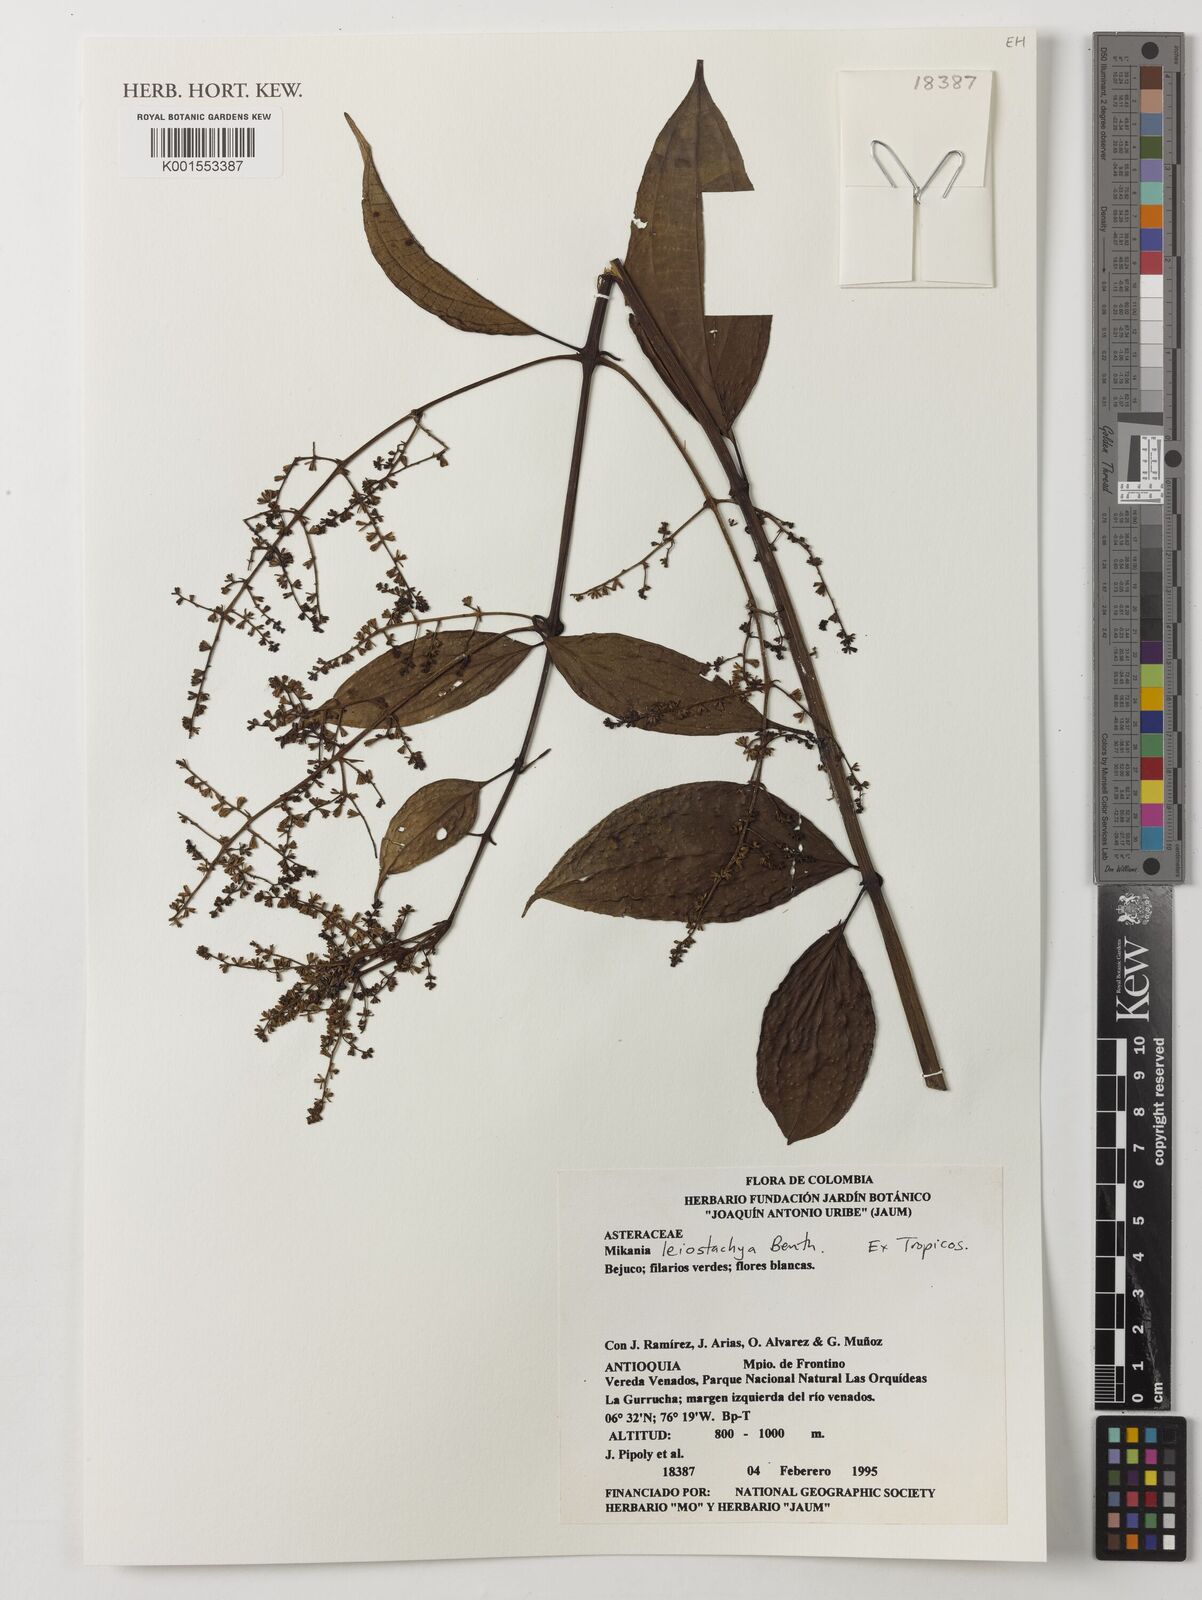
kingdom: Plantae
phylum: Tracheophyta
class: Magnoliopsida
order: Asterales
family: Asteraceae
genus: Mikania
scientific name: Mikania leiostachya
